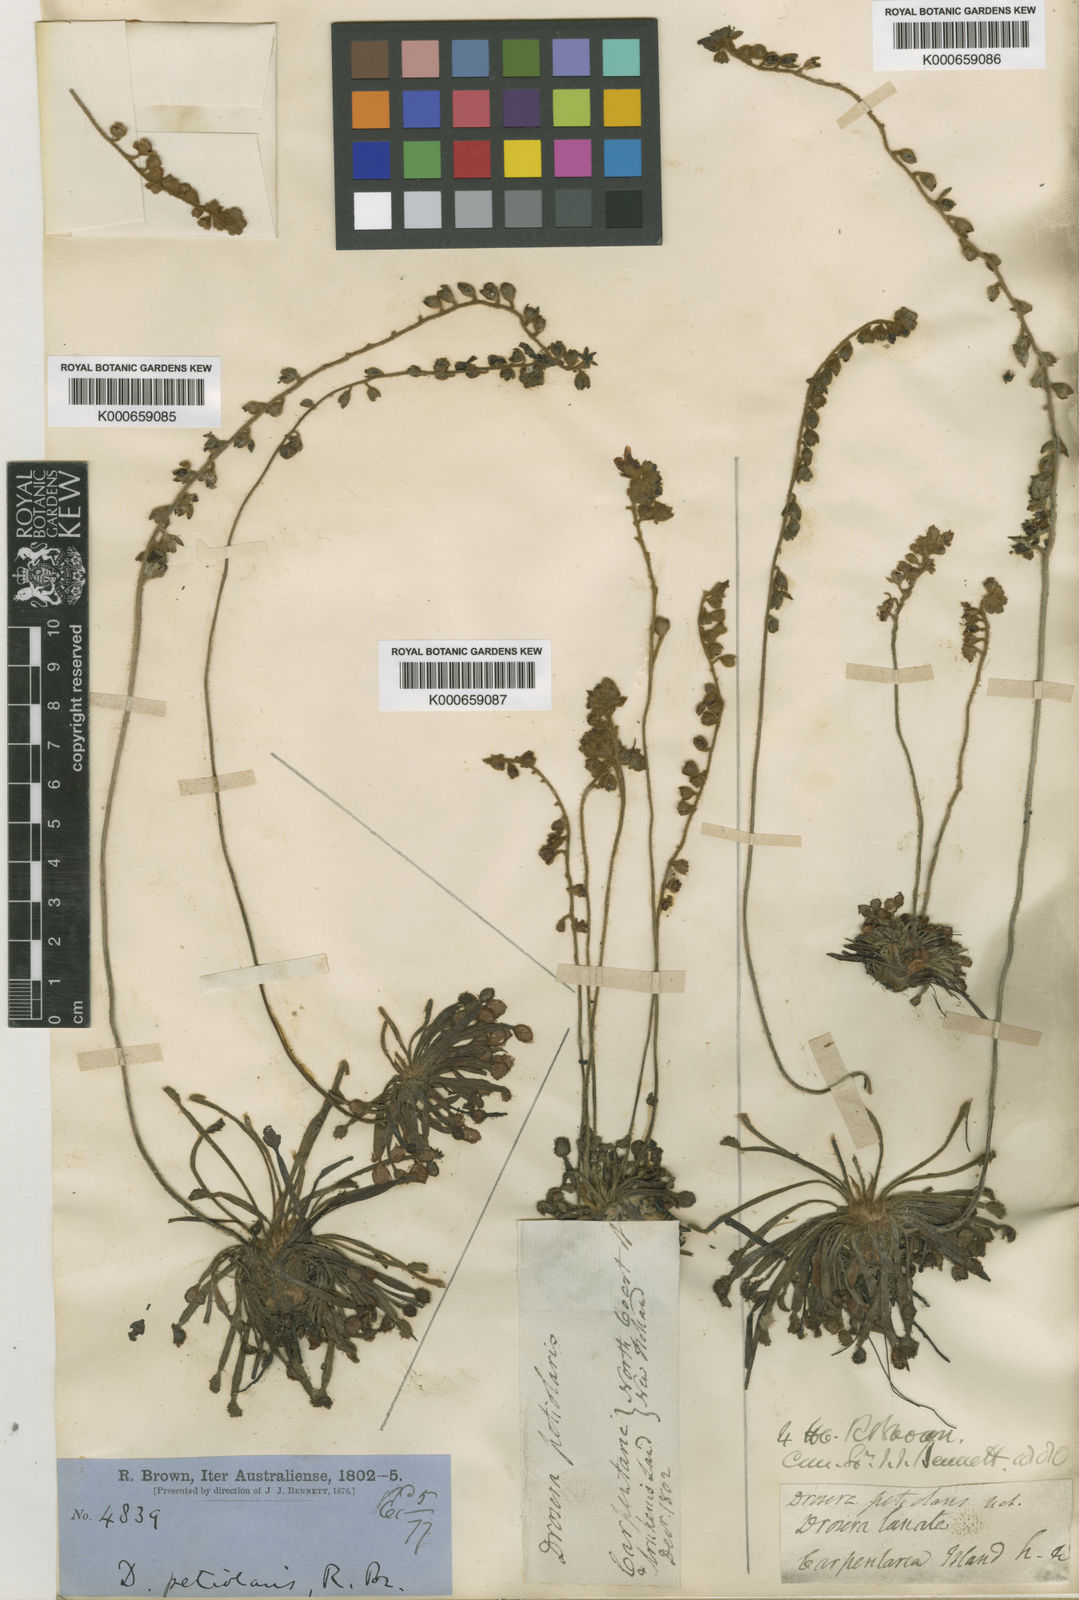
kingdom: Plantae
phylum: Tracheophyta
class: Magnoliopsida
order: Caryophyllales
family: Droseraceae
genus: Drosera
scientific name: Drosera
